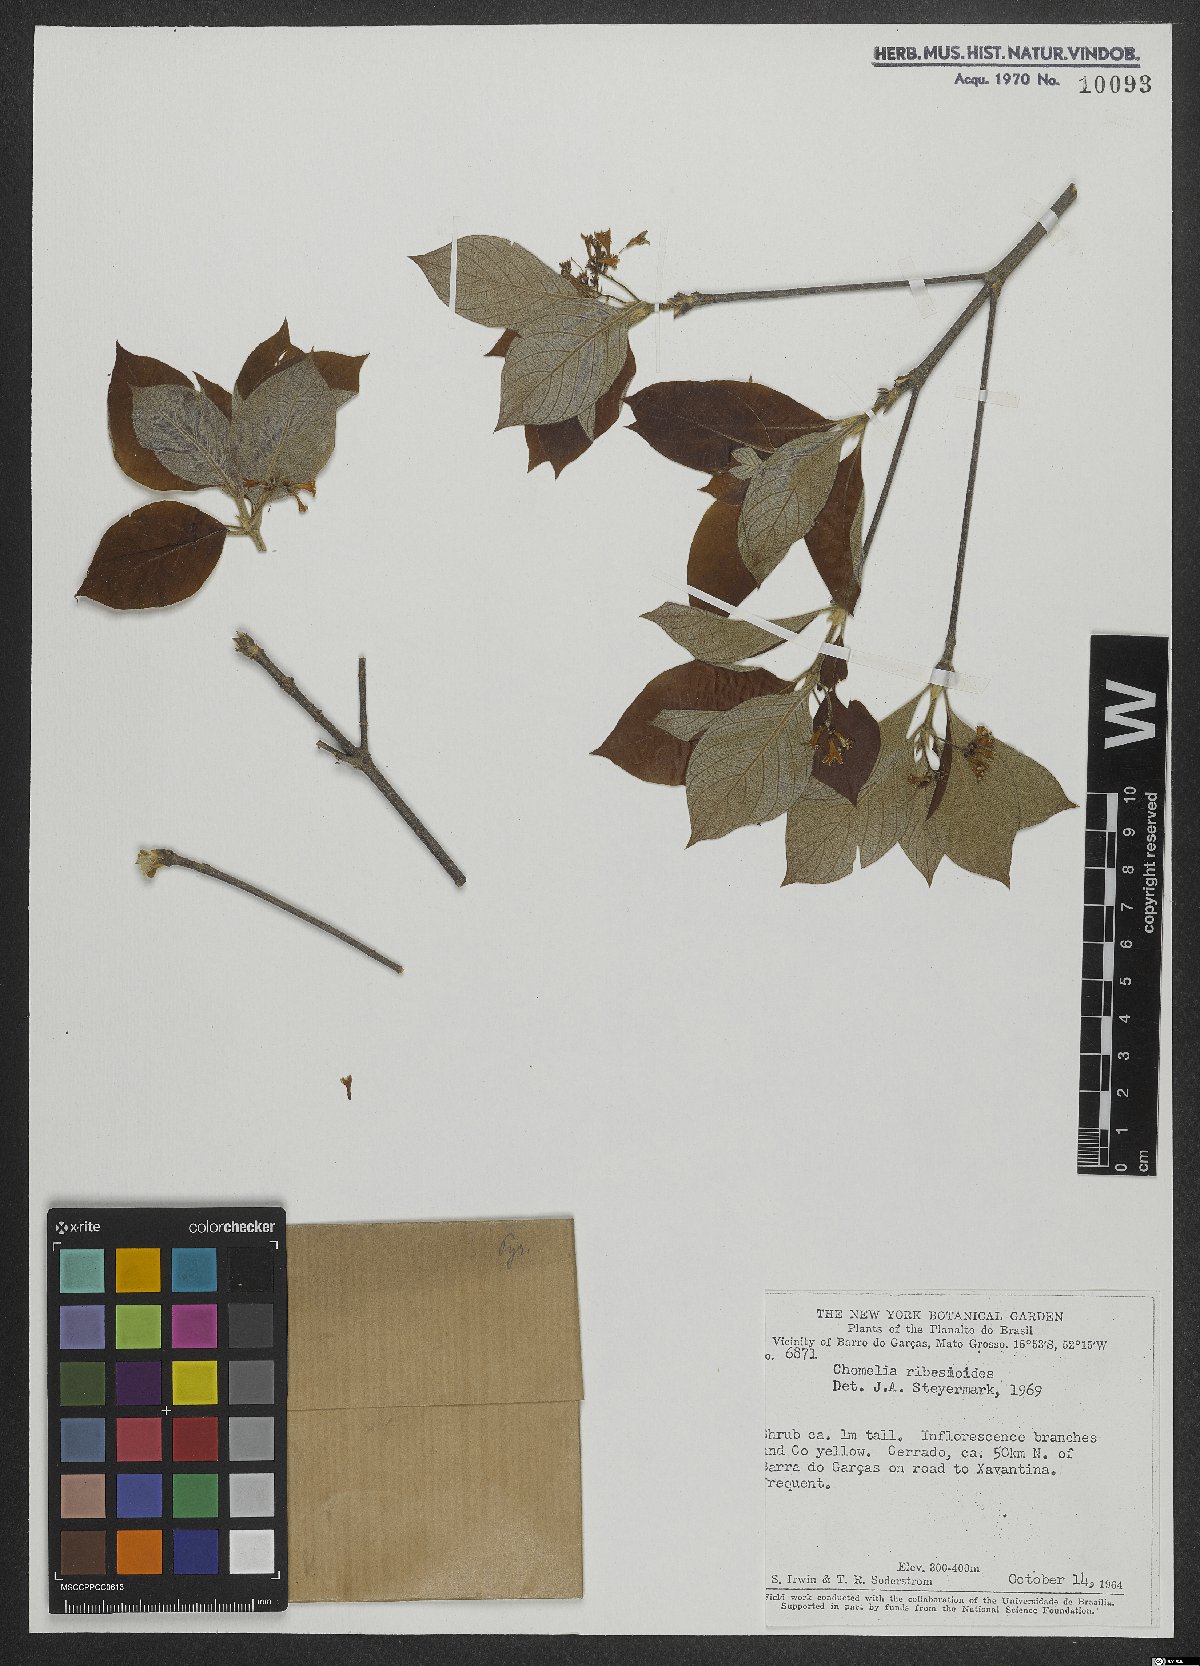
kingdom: Plantae
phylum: Tracheophyta
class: Magnoliopsida
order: Gentianales
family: Rubiaceae
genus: Chomelia
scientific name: Chomelia ribesioides
